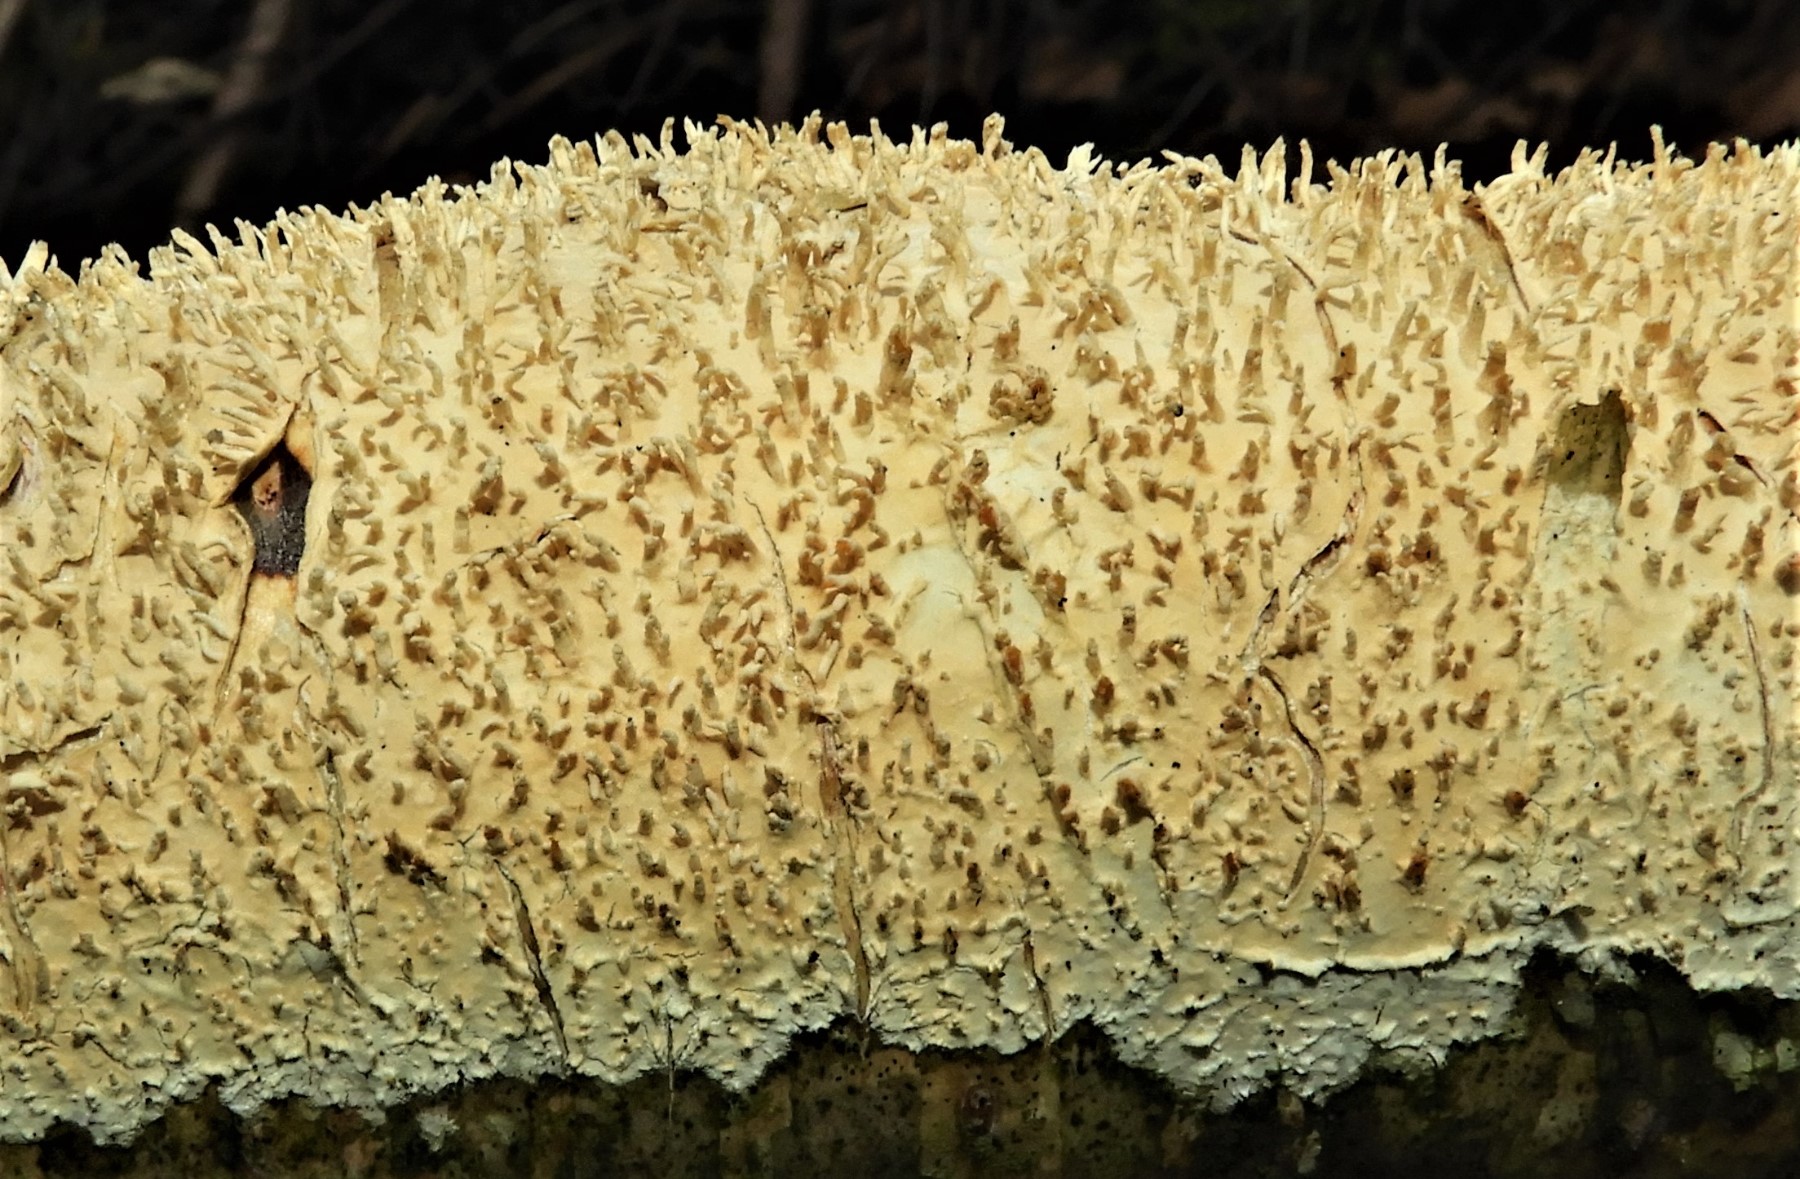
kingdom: Fungi
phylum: Basidiomycota
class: Agaricomycetes
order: Hymenochaetales
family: Schizoporaceae
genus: Xylodon
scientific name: Xylodon radula
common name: grovtandet kalkskind
